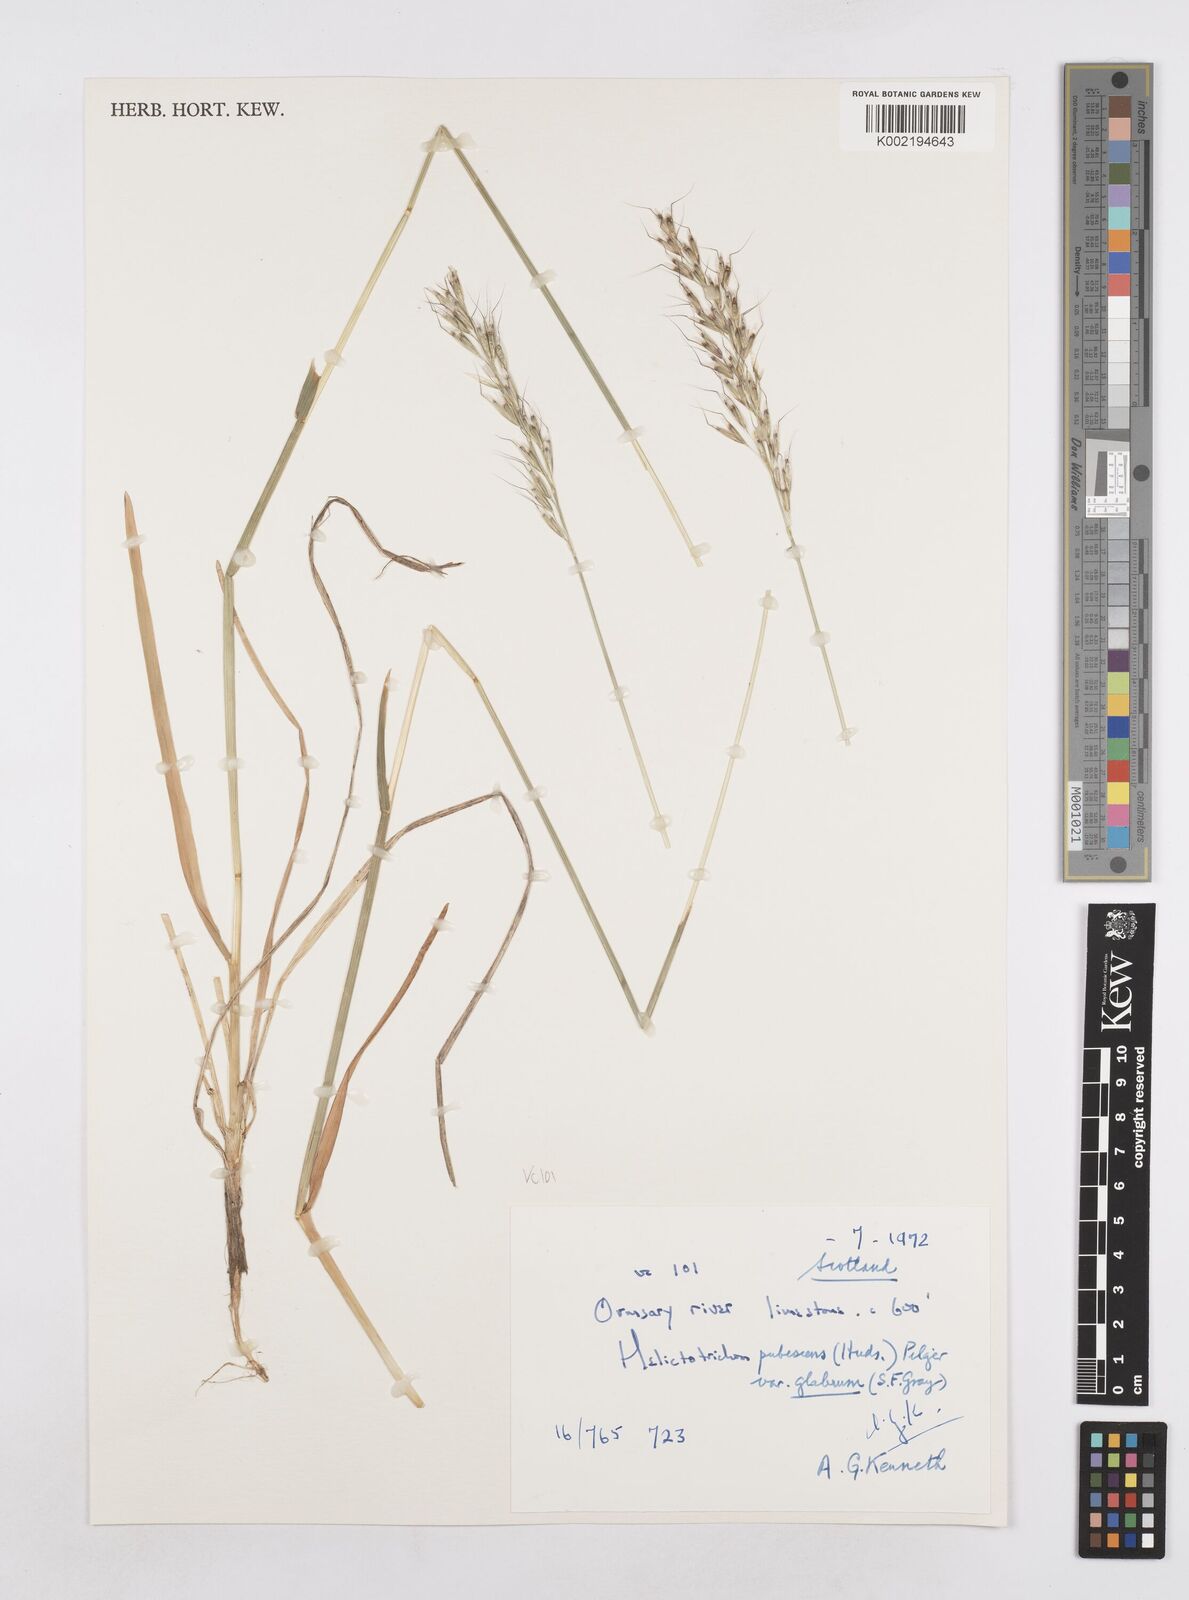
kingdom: Plantae
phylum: Tracheophyta
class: Liliopsida
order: Poales
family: Poaceae
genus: Avenula
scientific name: Avenula pubescens
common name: Downy alpine oatgrass
